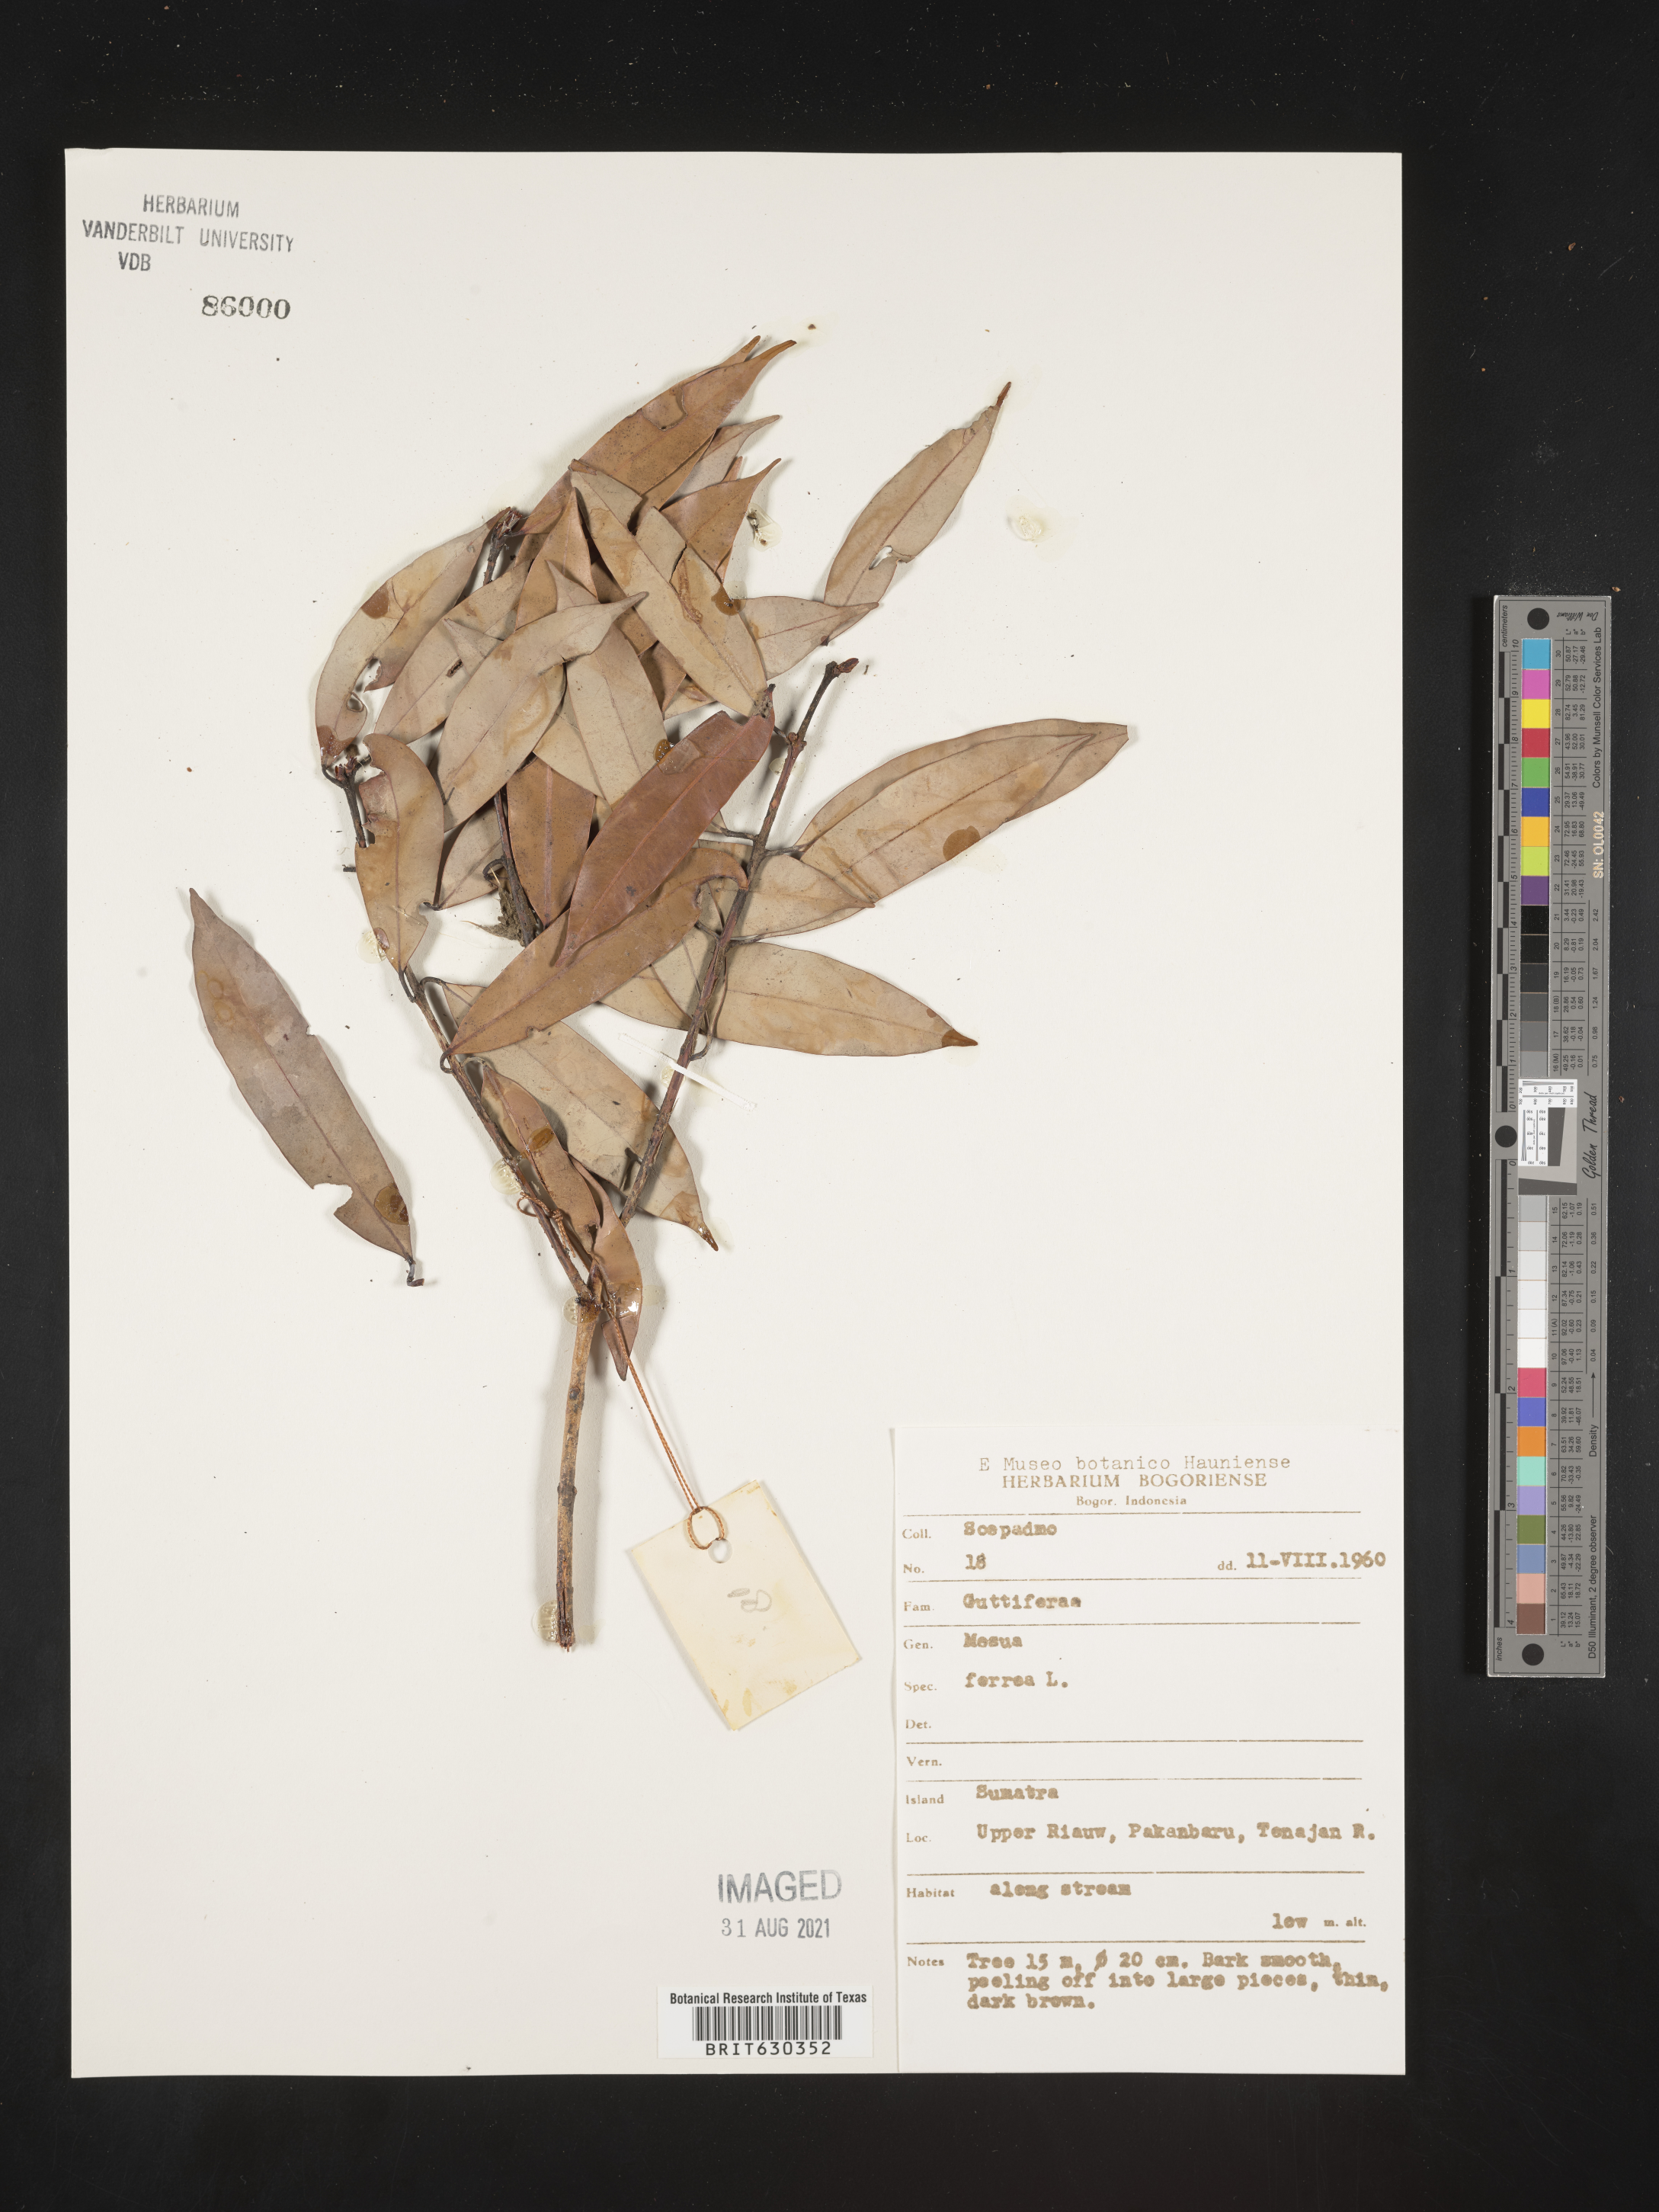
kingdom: Plantae
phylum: Tracheophyta
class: Magnoliopsida
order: Malpighiales
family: Calophyllaceae
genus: Mesua
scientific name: Mesua ferrea
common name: Mesua
